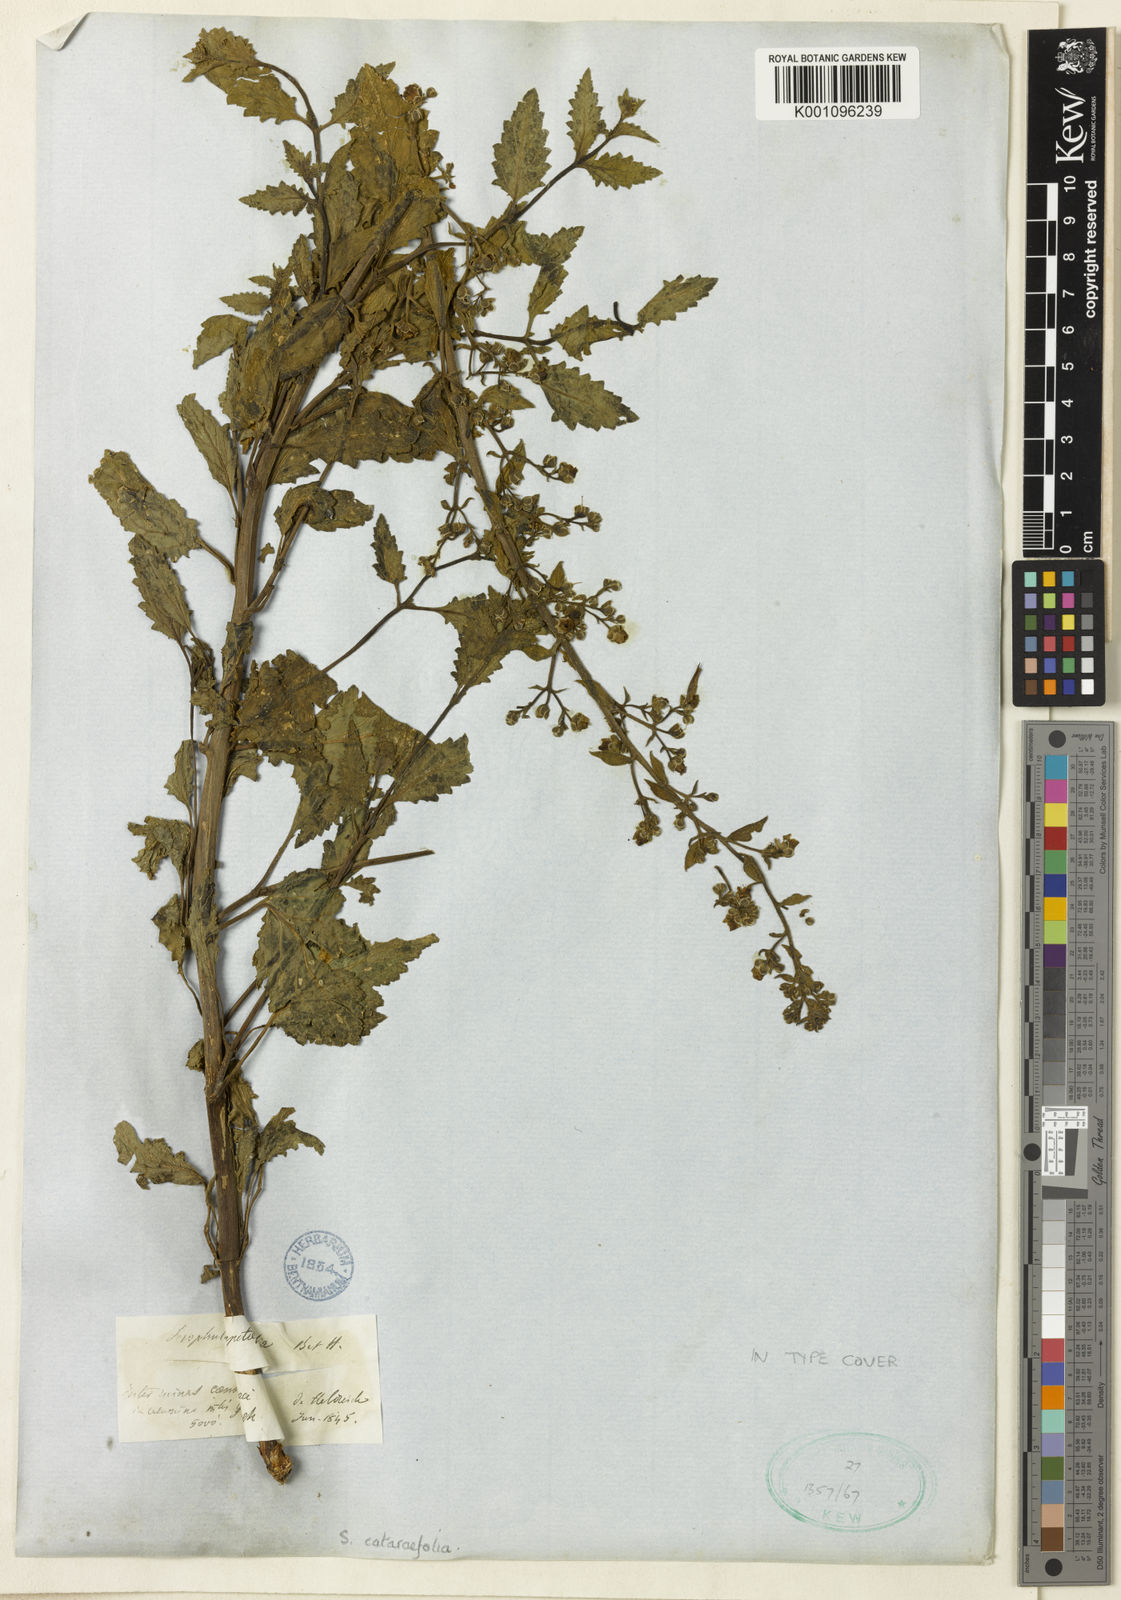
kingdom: Plantae
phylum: Tracheophyta
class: Magnoliopsida
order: Lamiales
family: Scrophulariaceae
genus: Scrophularia
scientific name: Scrophularia catariifolia
